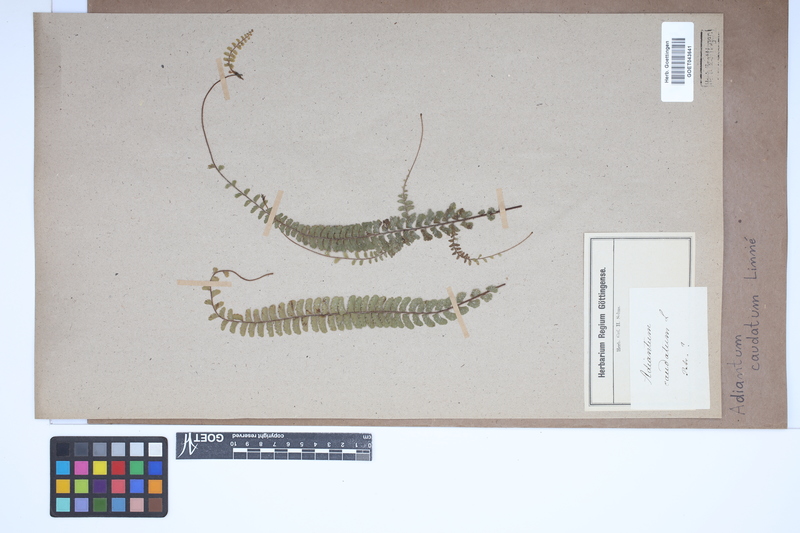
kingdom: Plantae
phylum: Tracheophyta
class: Polypodiopsida
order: Polypodiales
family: Pteridaceae
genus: Adiantum
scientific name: Adiantum caudatum
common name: Tailed maidenhair
